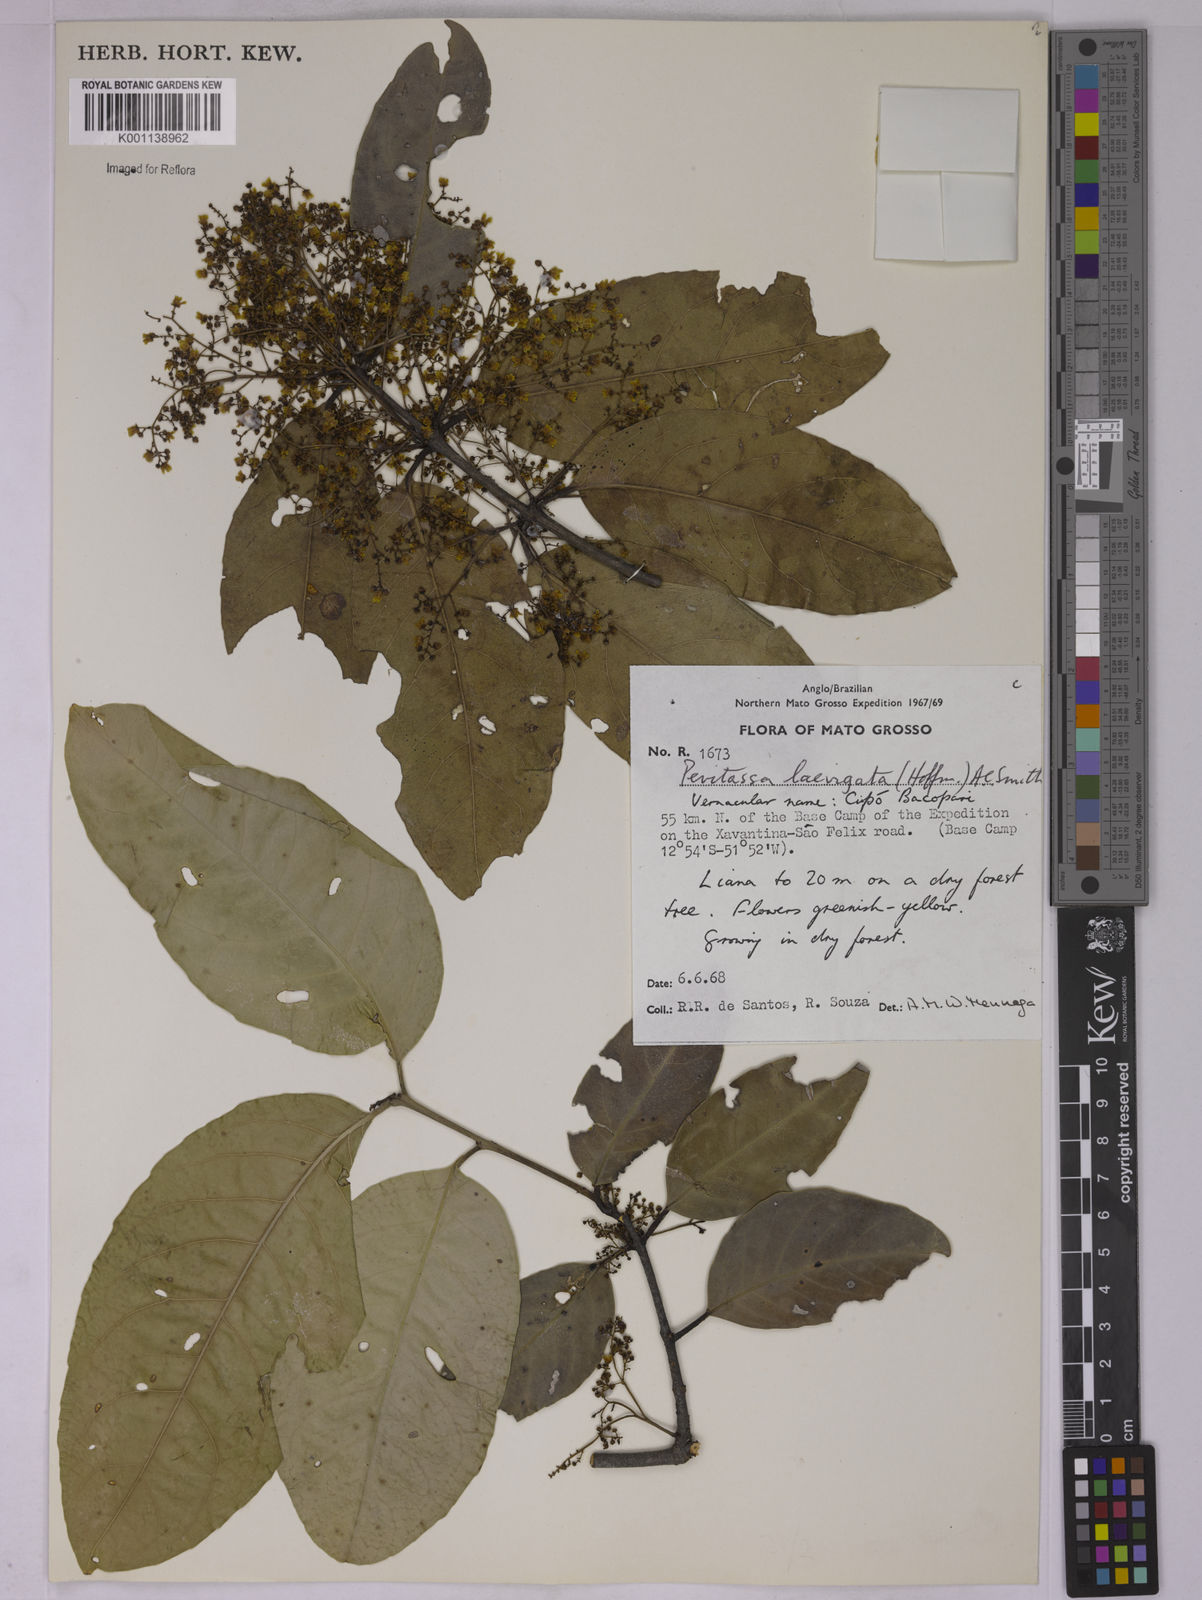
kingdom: Plantae
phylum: Tracheophyta
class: Magnoliopsida
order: Celastrales
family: Celastraceae
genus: Peritassa
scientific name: Peritassa laevigata
